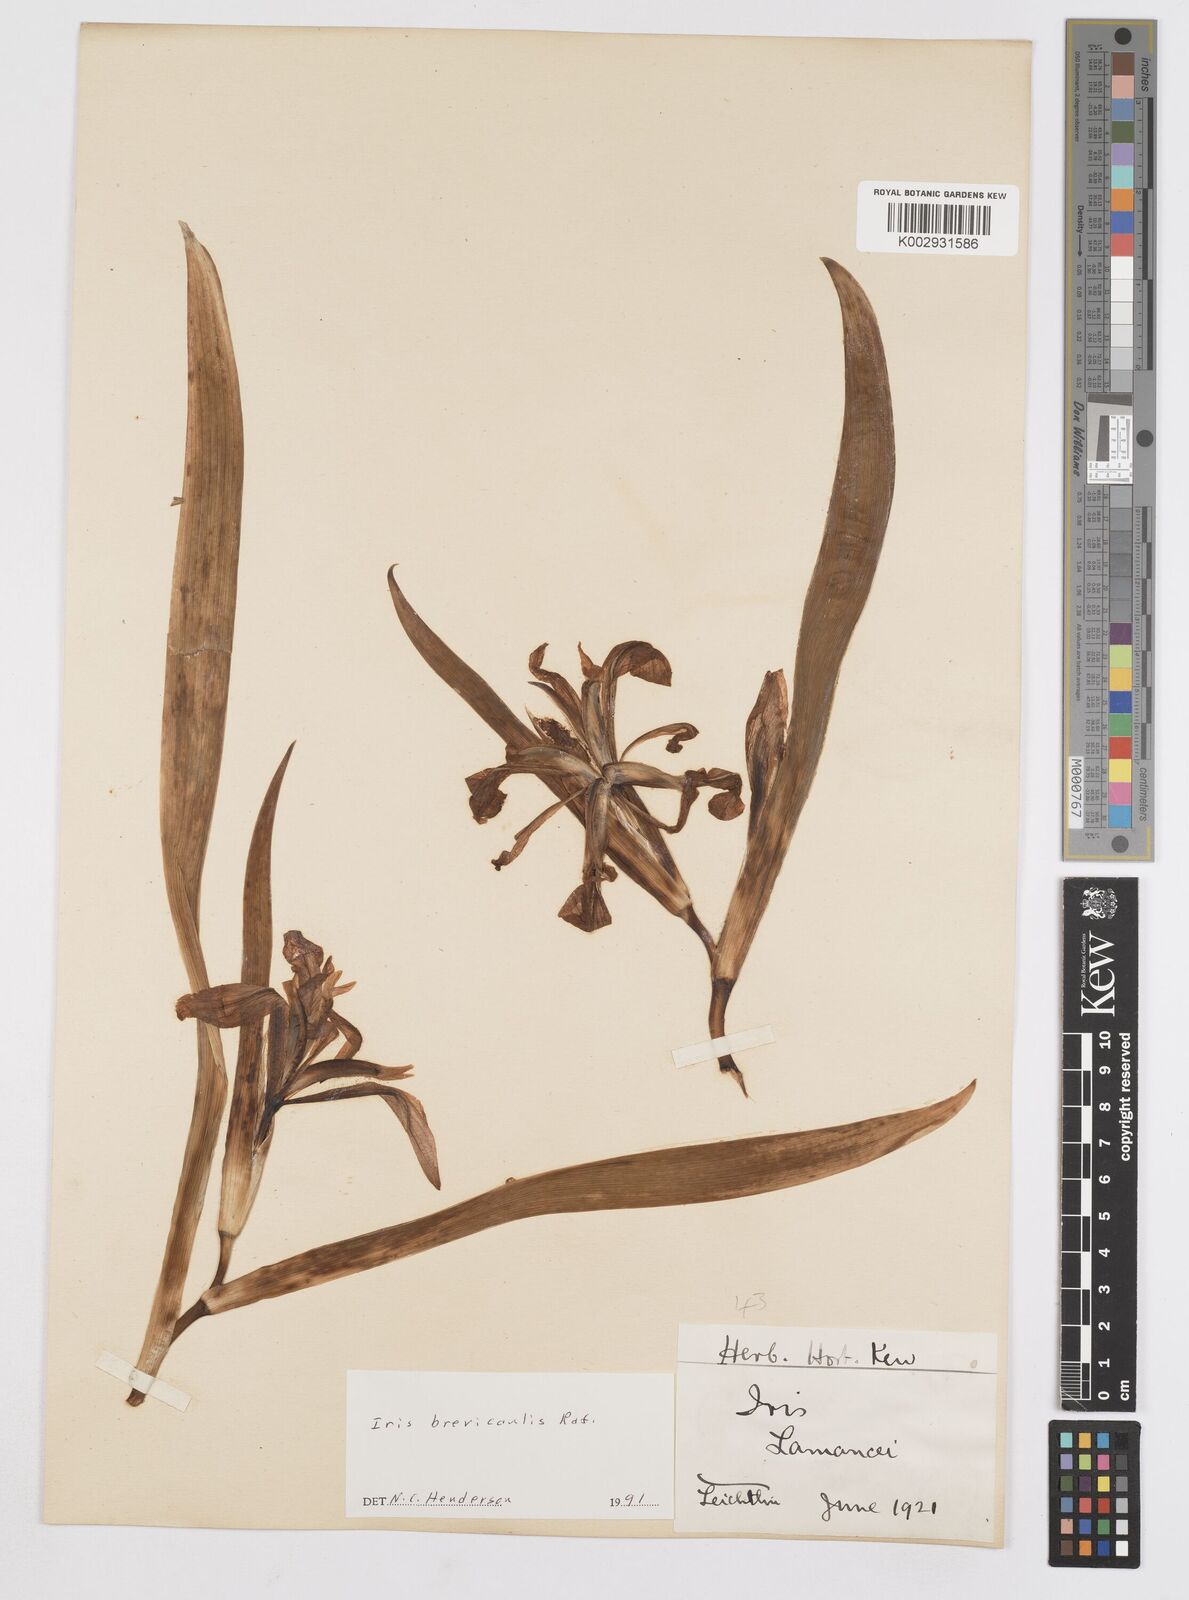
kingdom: Plantae
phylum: Tracheophyta
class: Liliopsida
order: Asparagales
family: Iridaceae
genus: Iris
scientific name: Iris brevicaulis
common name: Zigzag iris
